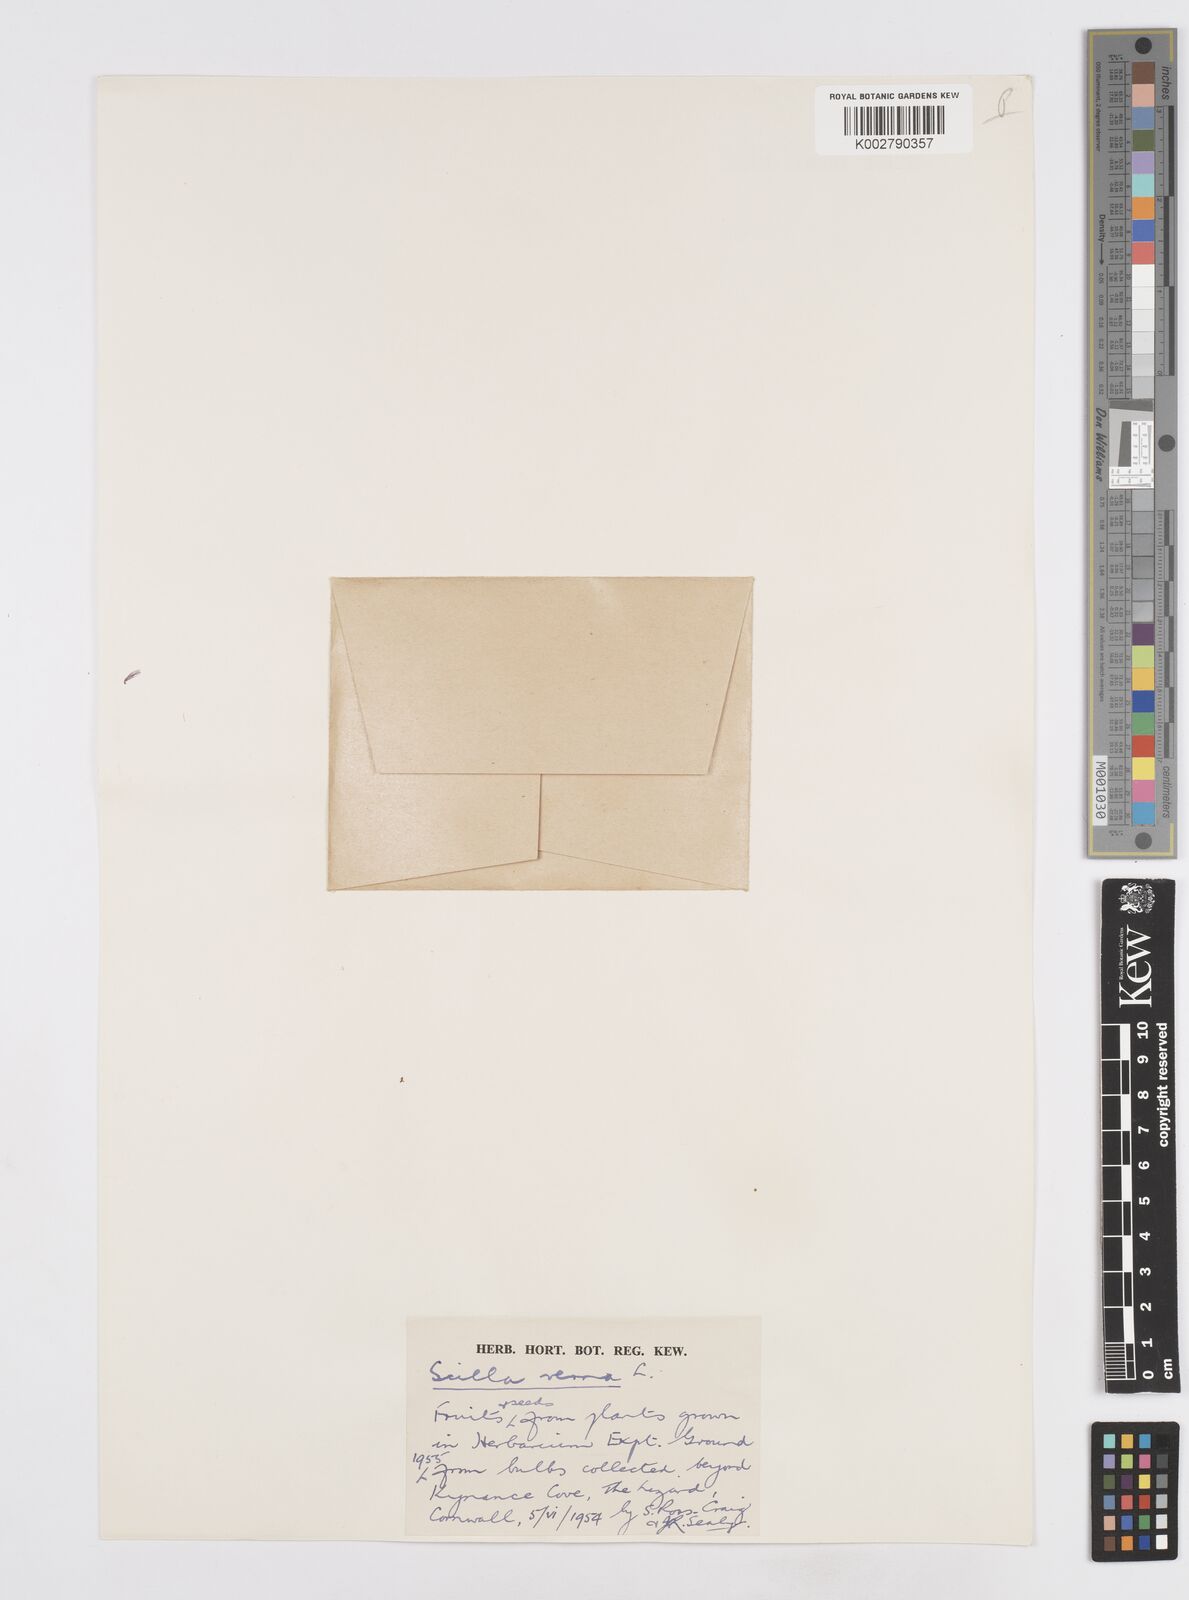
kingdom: Plantae
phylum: Tracheophyta
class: Liliopsida
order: Asparagales
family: Asparagaceae
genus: Scilla
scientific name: Scilla verna
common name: Spring squill
